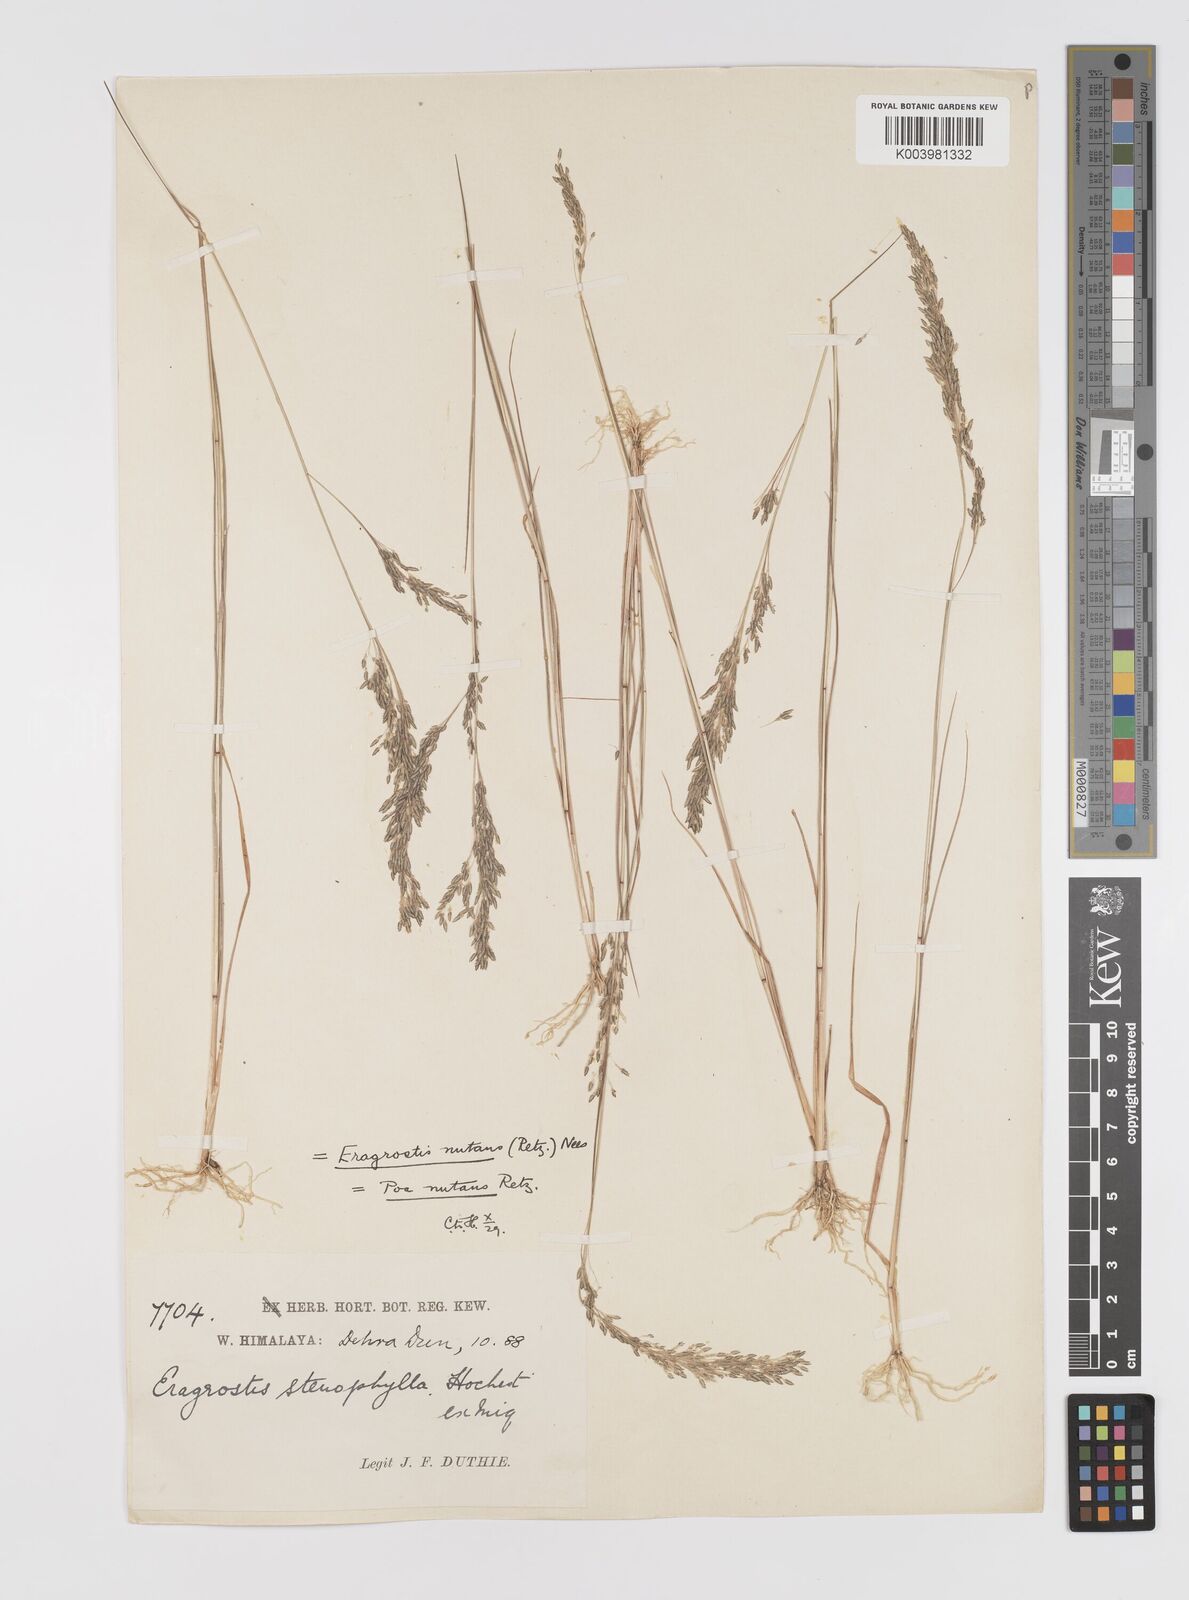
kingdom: Plantae
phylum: Tracheophyta
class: Liliopsida
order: Poales
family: Poaceae
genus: Eragrostis
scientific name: Eragrostis gangetica
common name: Slimflower lovegrass
